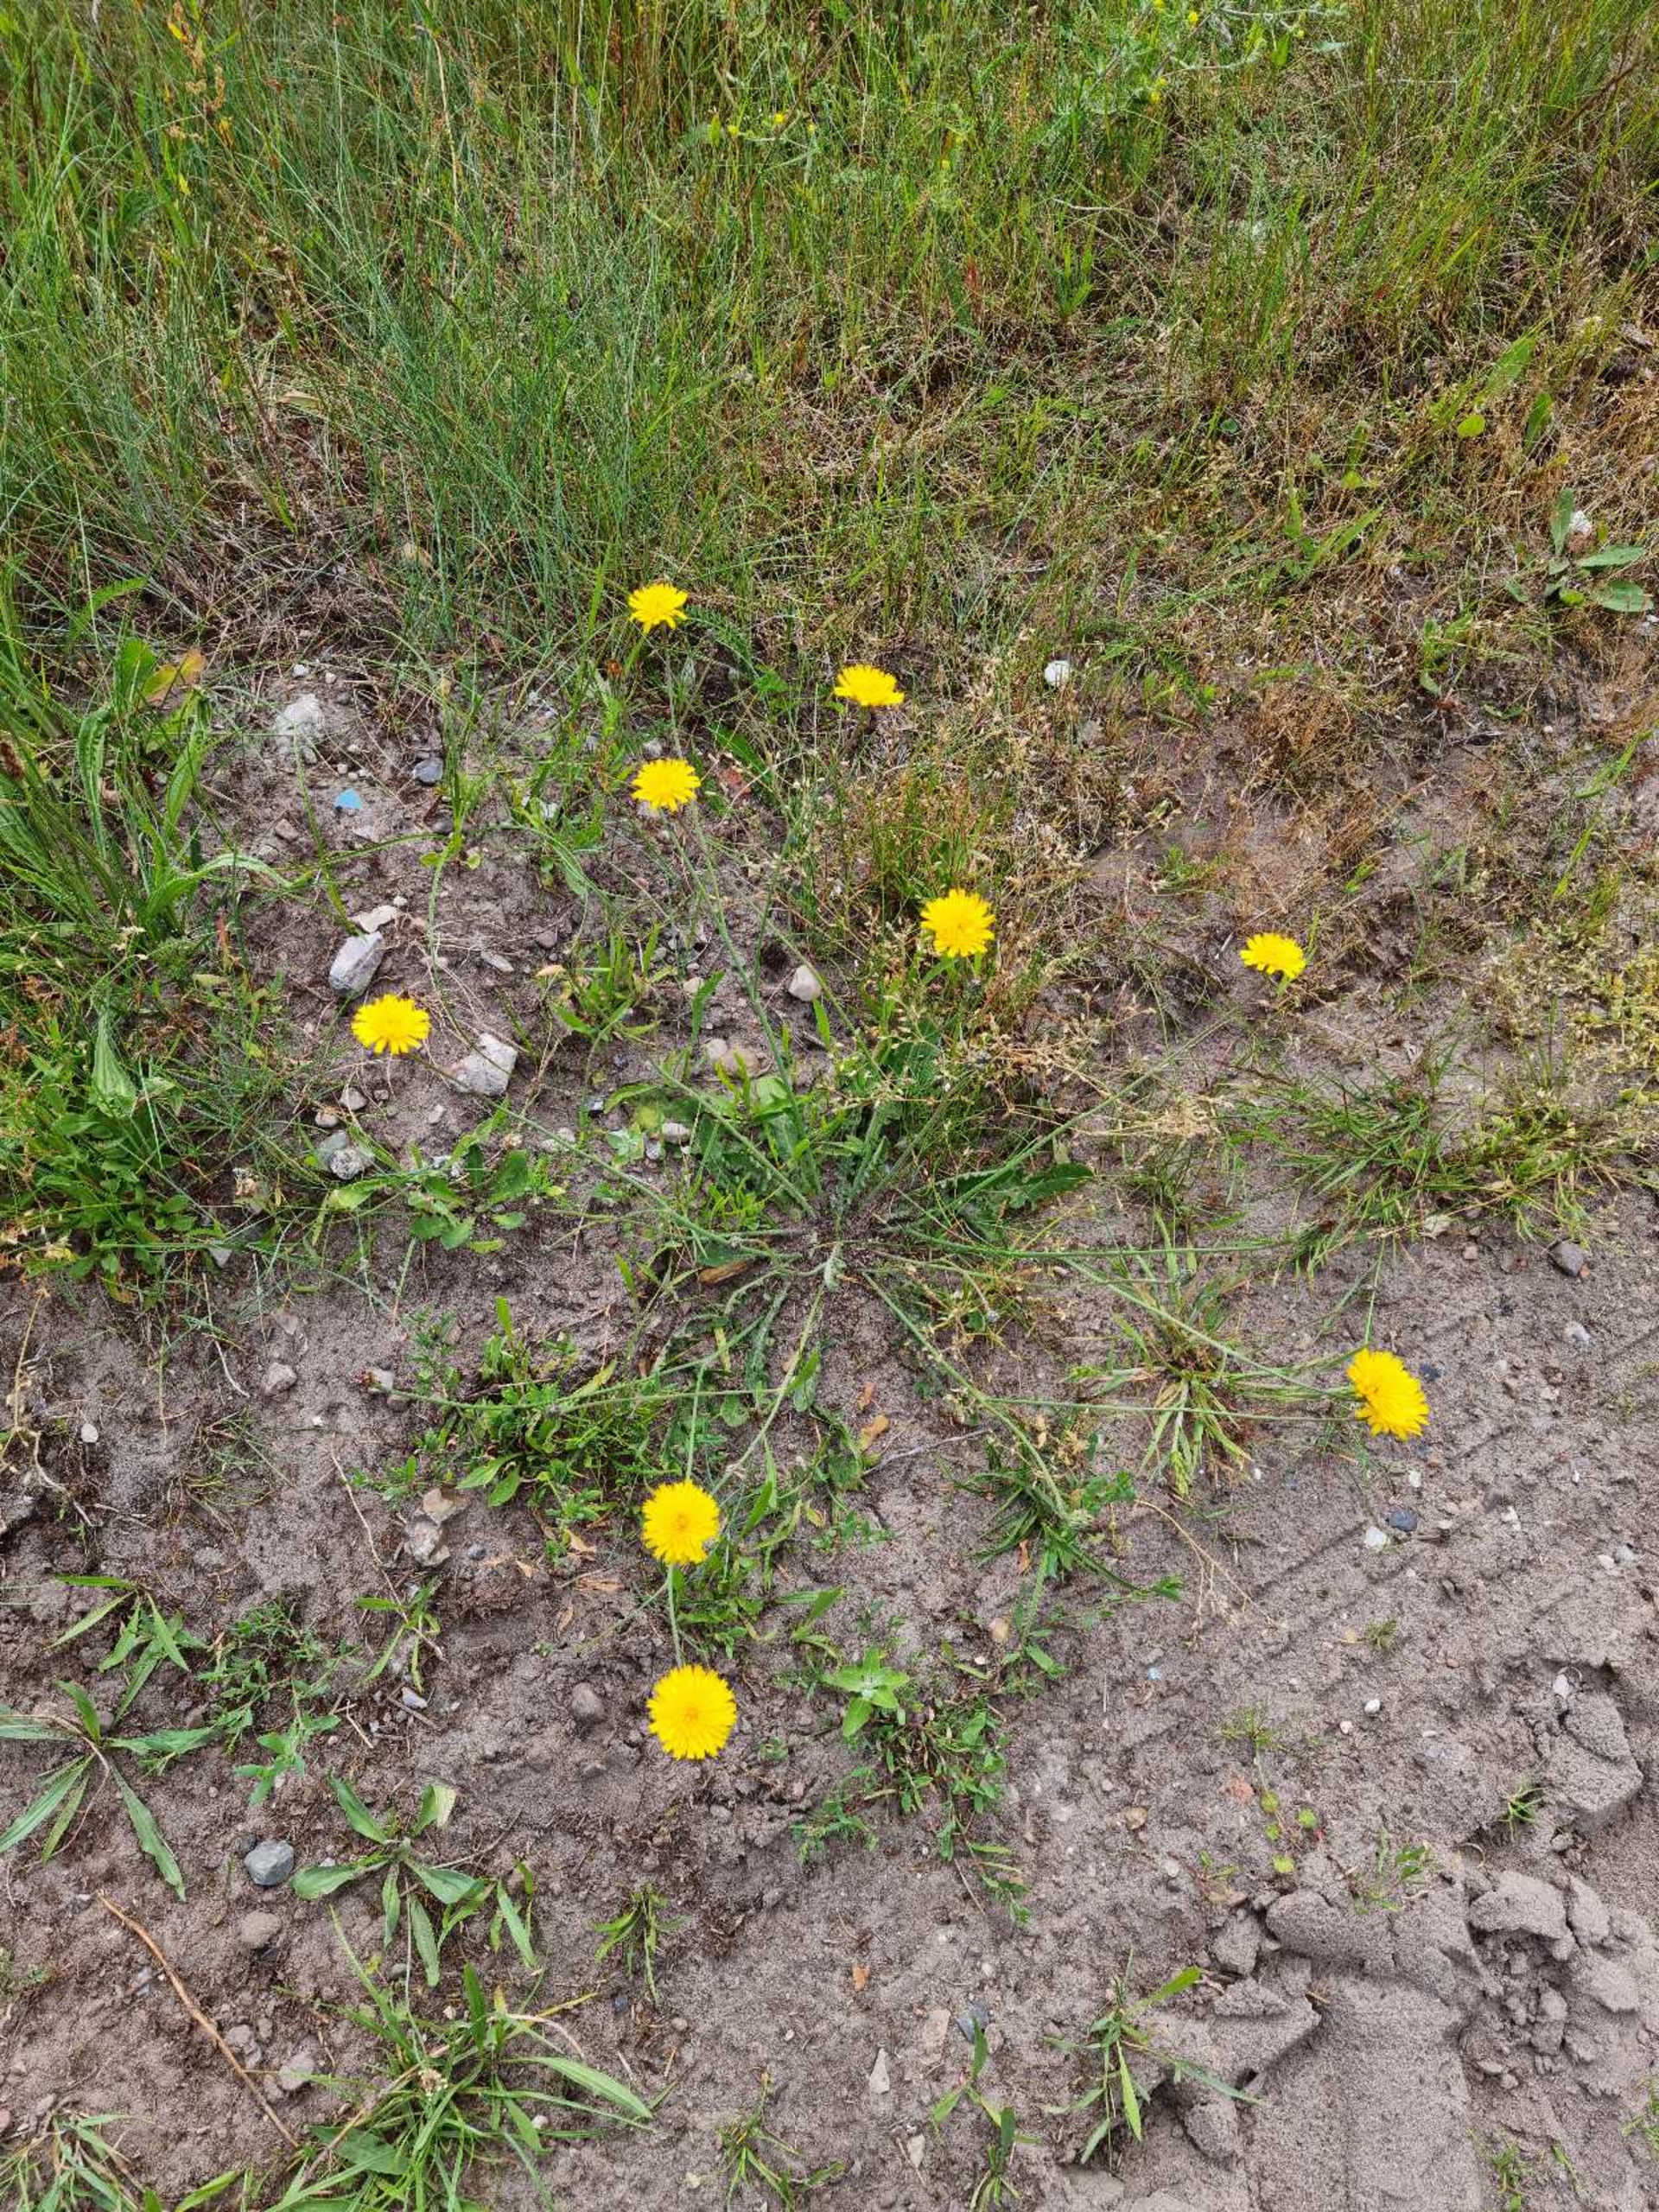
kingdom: Plantae
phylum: Tracheophyta
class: Magnoliopsida
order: Asterales
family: Asteraceae
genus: Hypochaeris
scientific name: Hypochaeris radicata
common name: Almindelig kongepen
